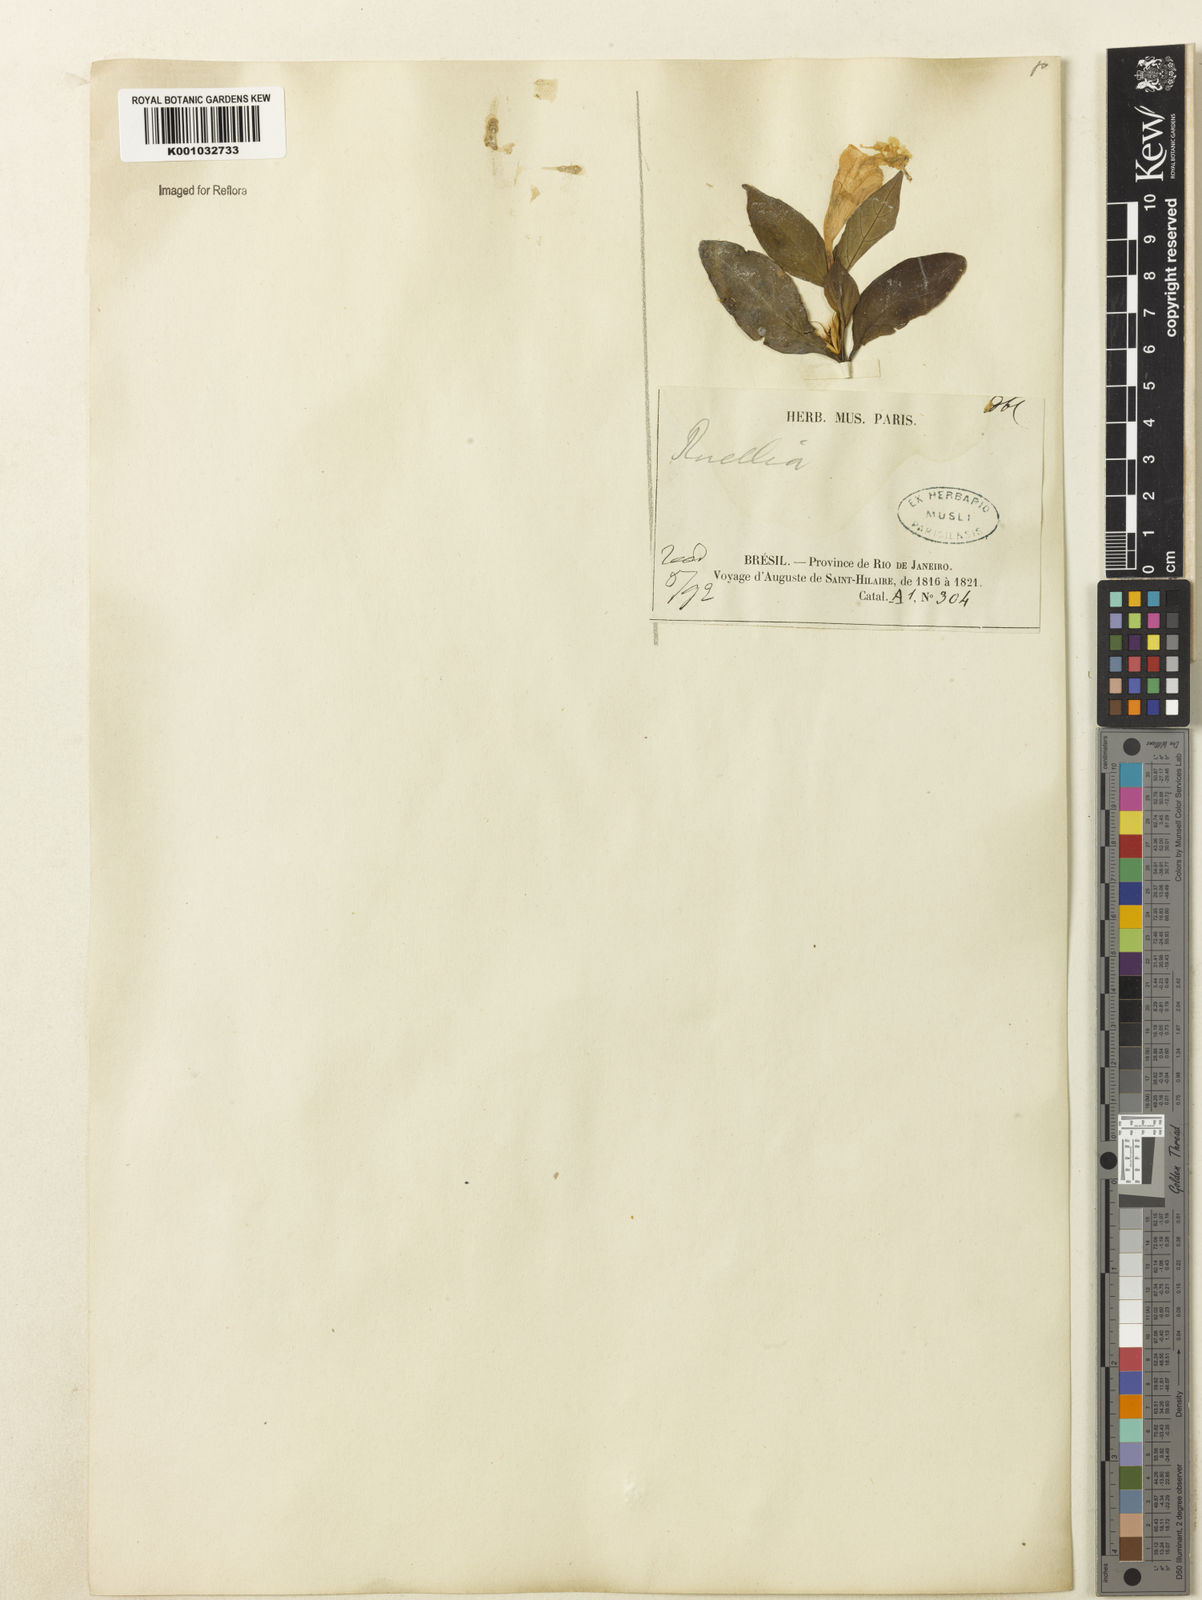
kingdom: Plantae
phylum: Tracheophyta
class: Magnoliopsida
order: Lamiales
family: Acanthaceae
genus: Ruellia
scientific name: Ruellia
